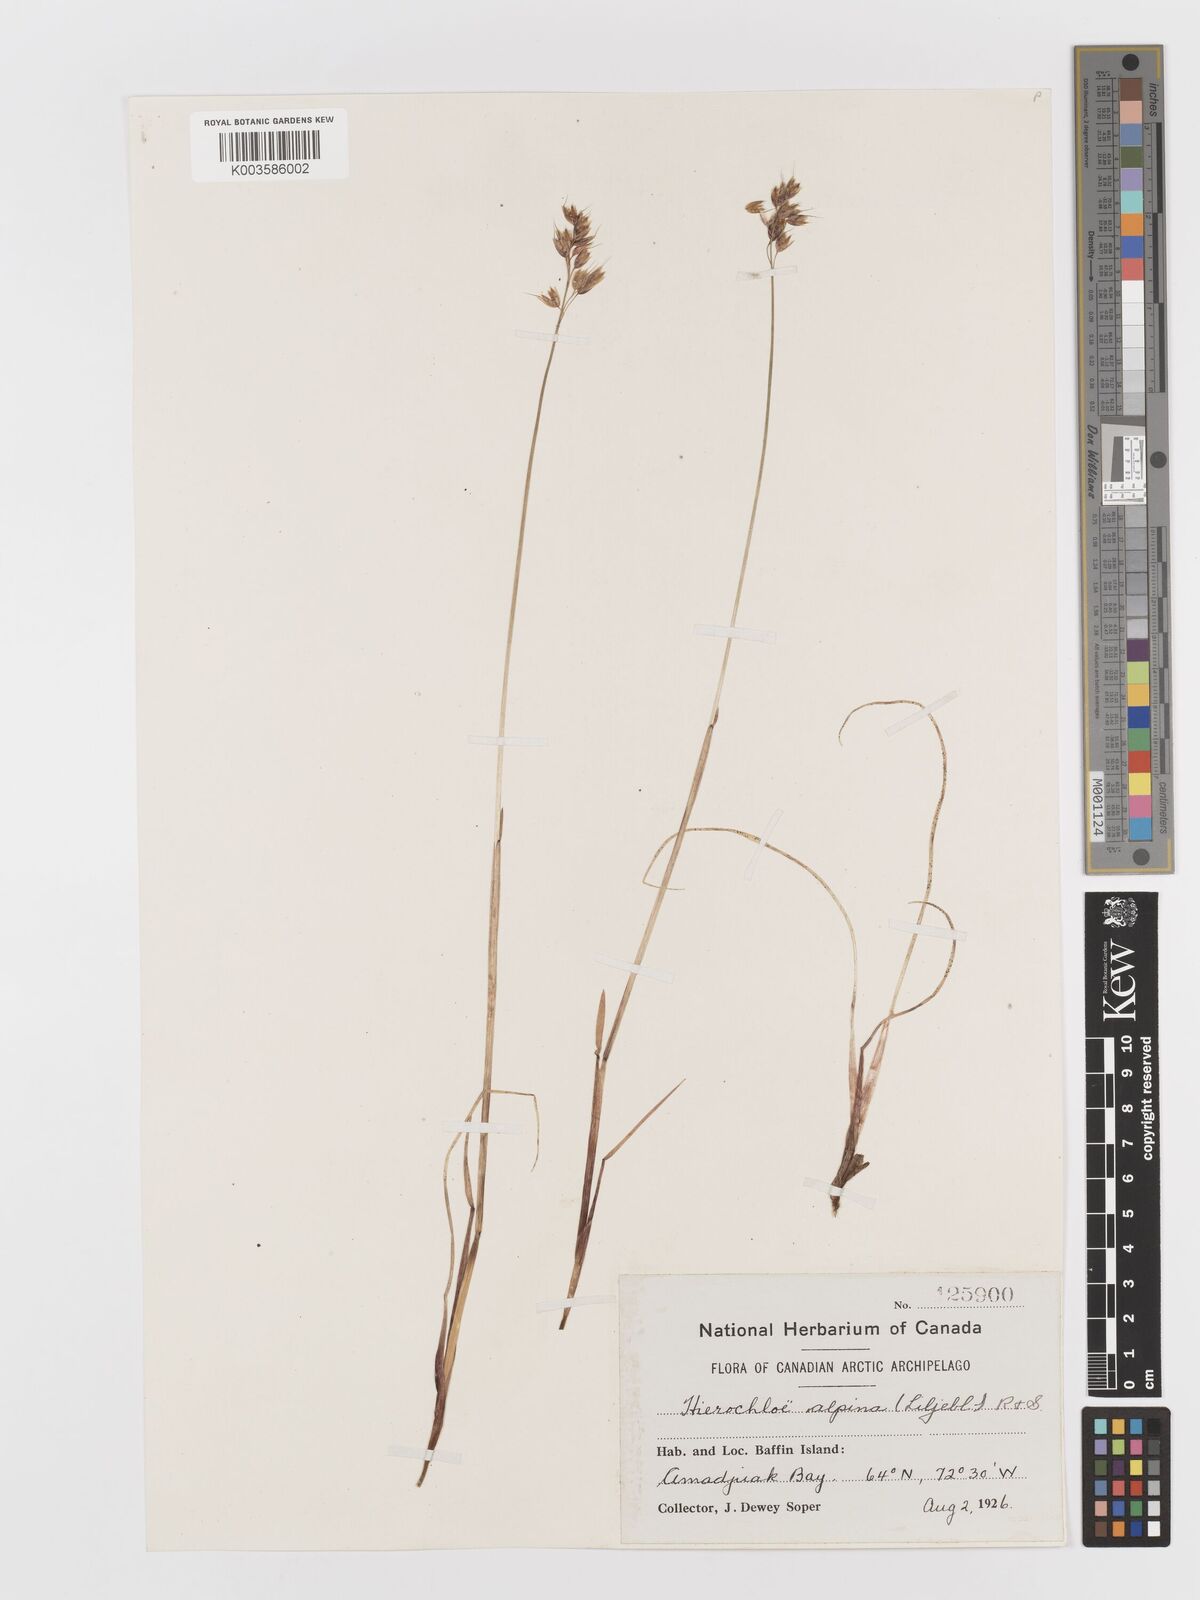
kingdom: Plantae
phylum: Tracheophyta
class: Liliopsida
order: Poales
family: Poaceae
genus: Anthoxanthum
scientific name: Anthoxanthum monticola
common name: Alpine sweetgrass
